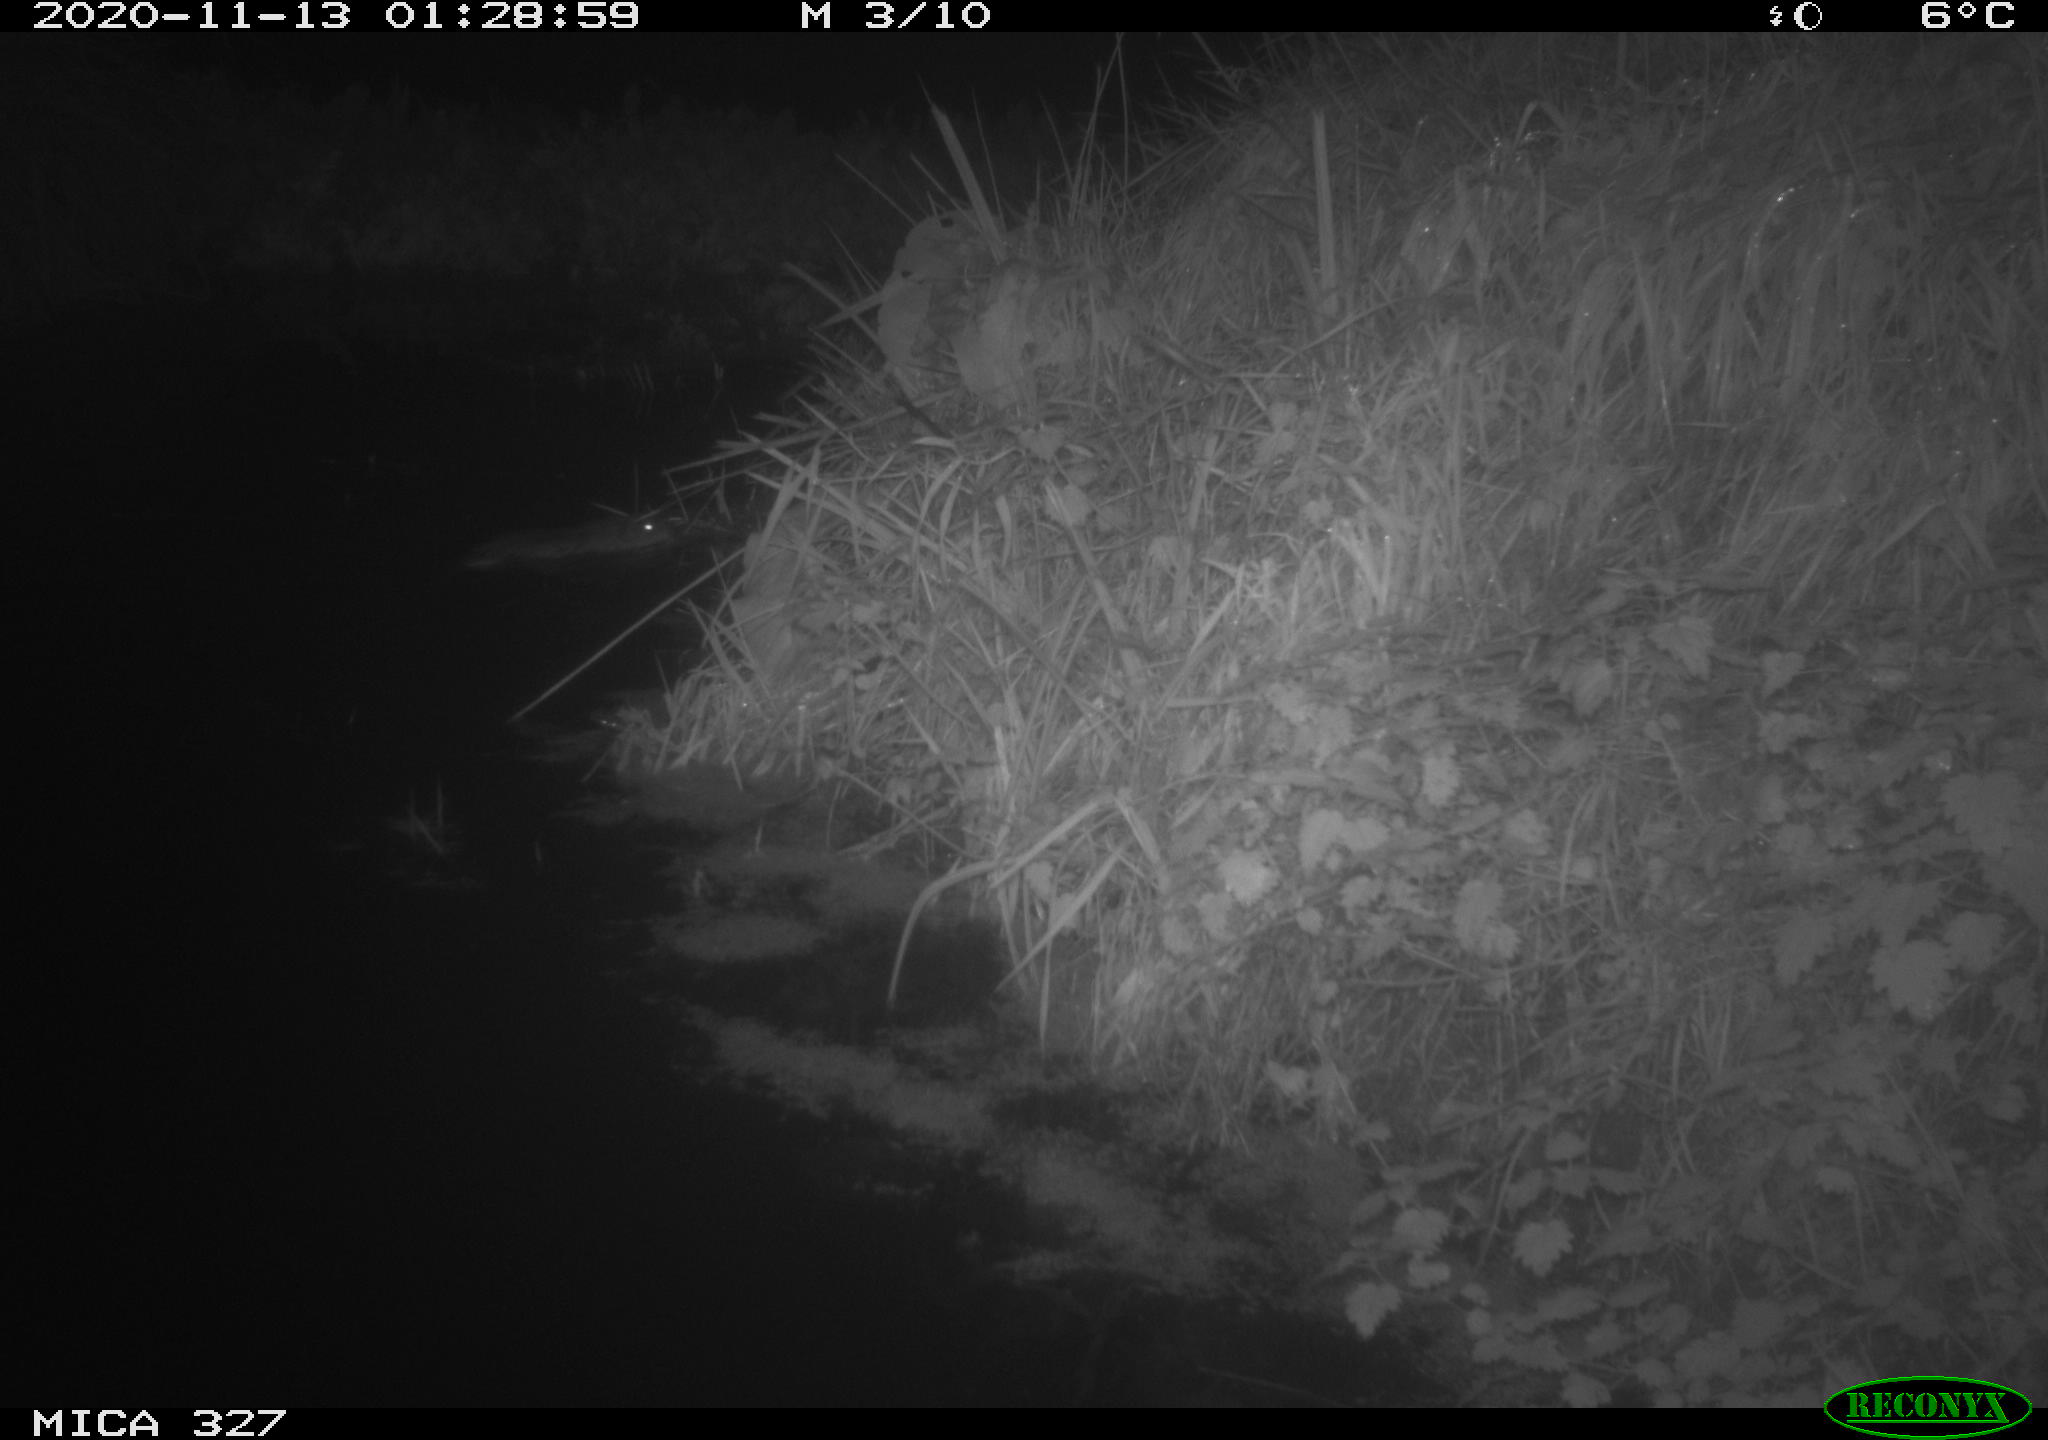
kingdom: Animalia
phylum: Chordata
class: Mammalia
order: Rodentia
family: Myocastoridae
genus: Myocastor
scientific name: Myocastor coypus
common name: Coypu
